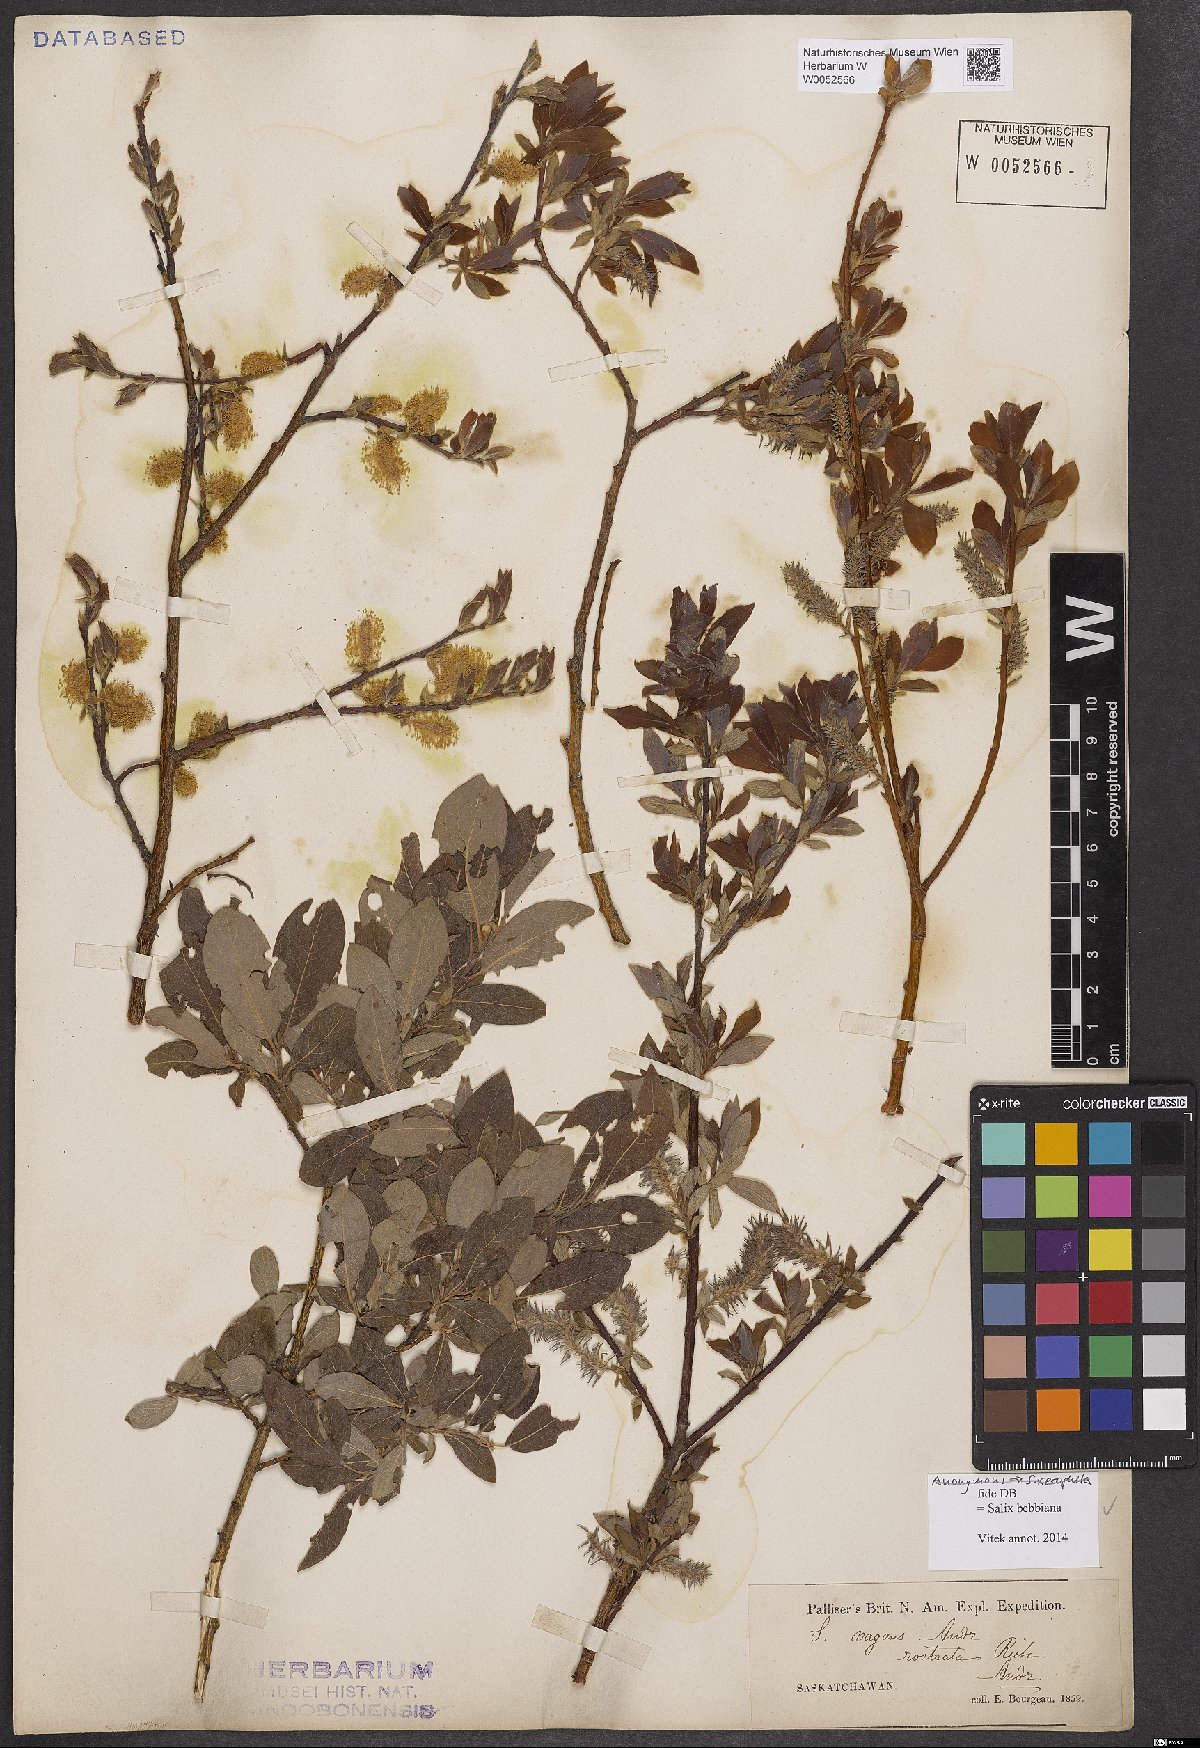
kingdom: Plantae
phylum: Tracheophyta
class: Magnoliopsida
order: Malpighiales
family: Salicaceae
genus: Salix
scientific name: Salix bebbiana
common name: Bebb's willow
